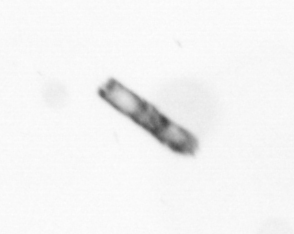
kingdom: Chromista
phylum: Ochrophyta
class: Bacillariophyceae
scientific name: Bacillariophyceae
